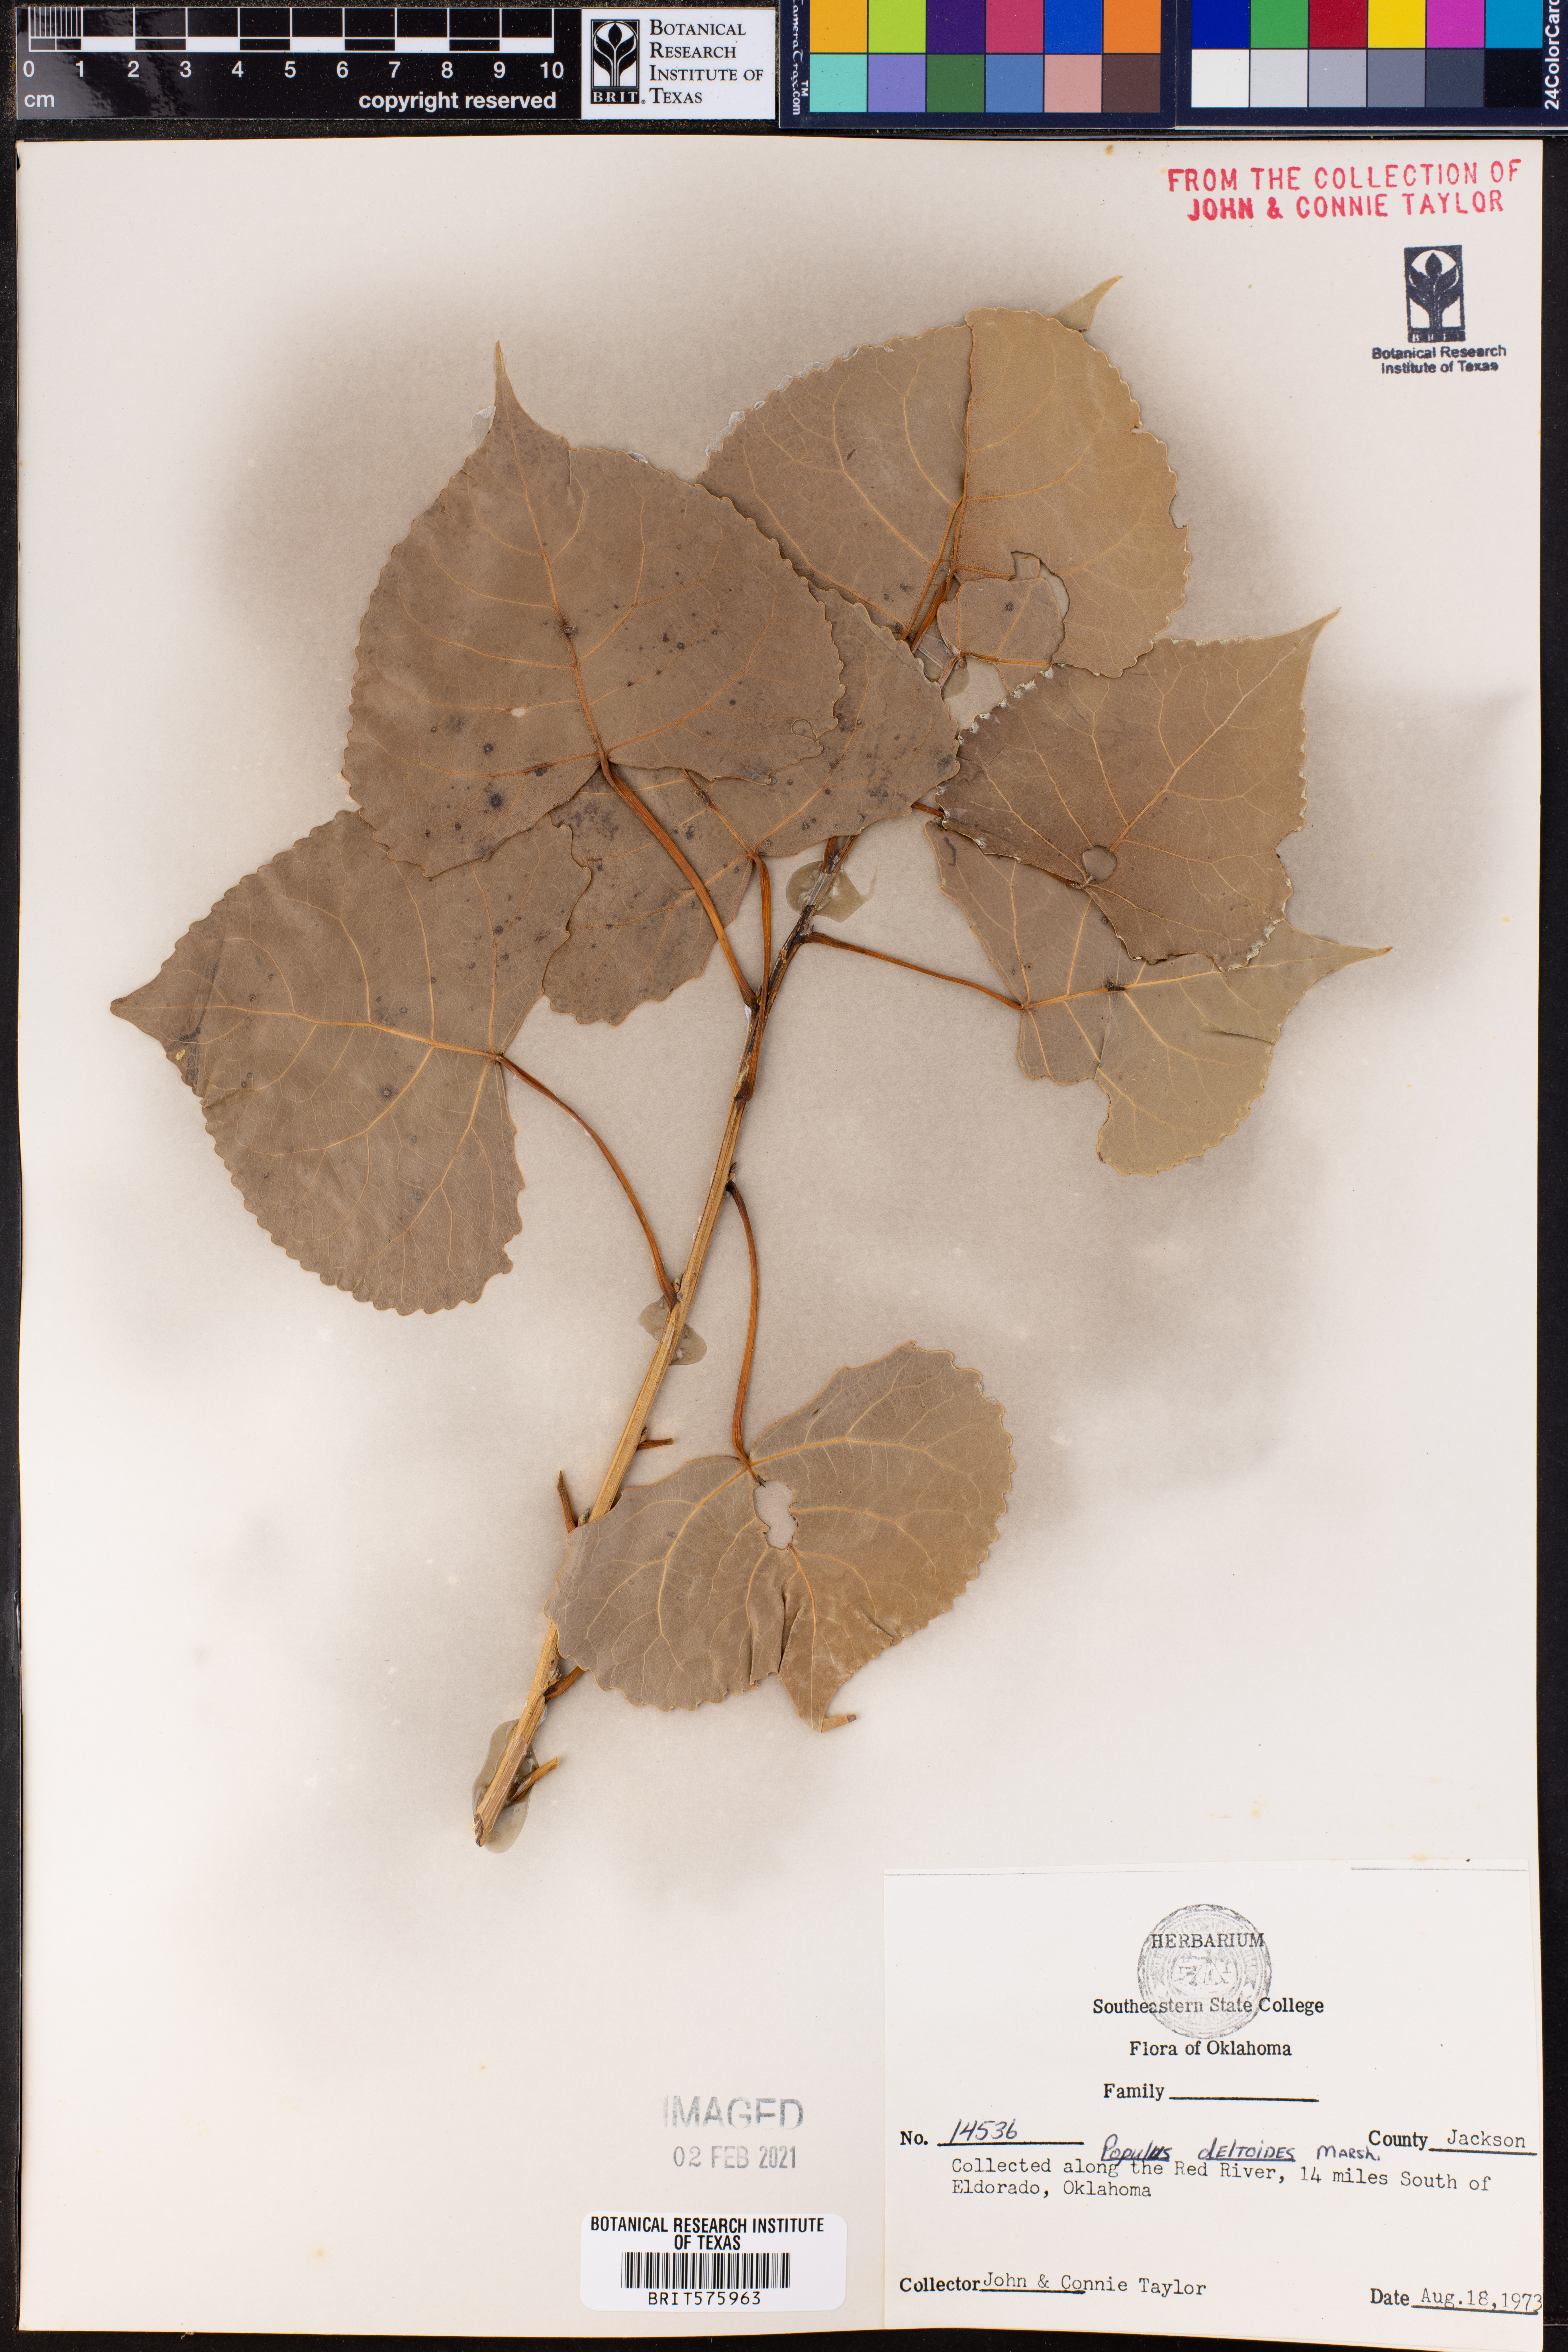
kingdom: Plantae
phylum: Tracheophyta
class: Magnoliopsida
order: Malpighiales
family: Salicaceae
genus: Populus
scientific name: Populus deltoides
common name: Eastern cottonwood
